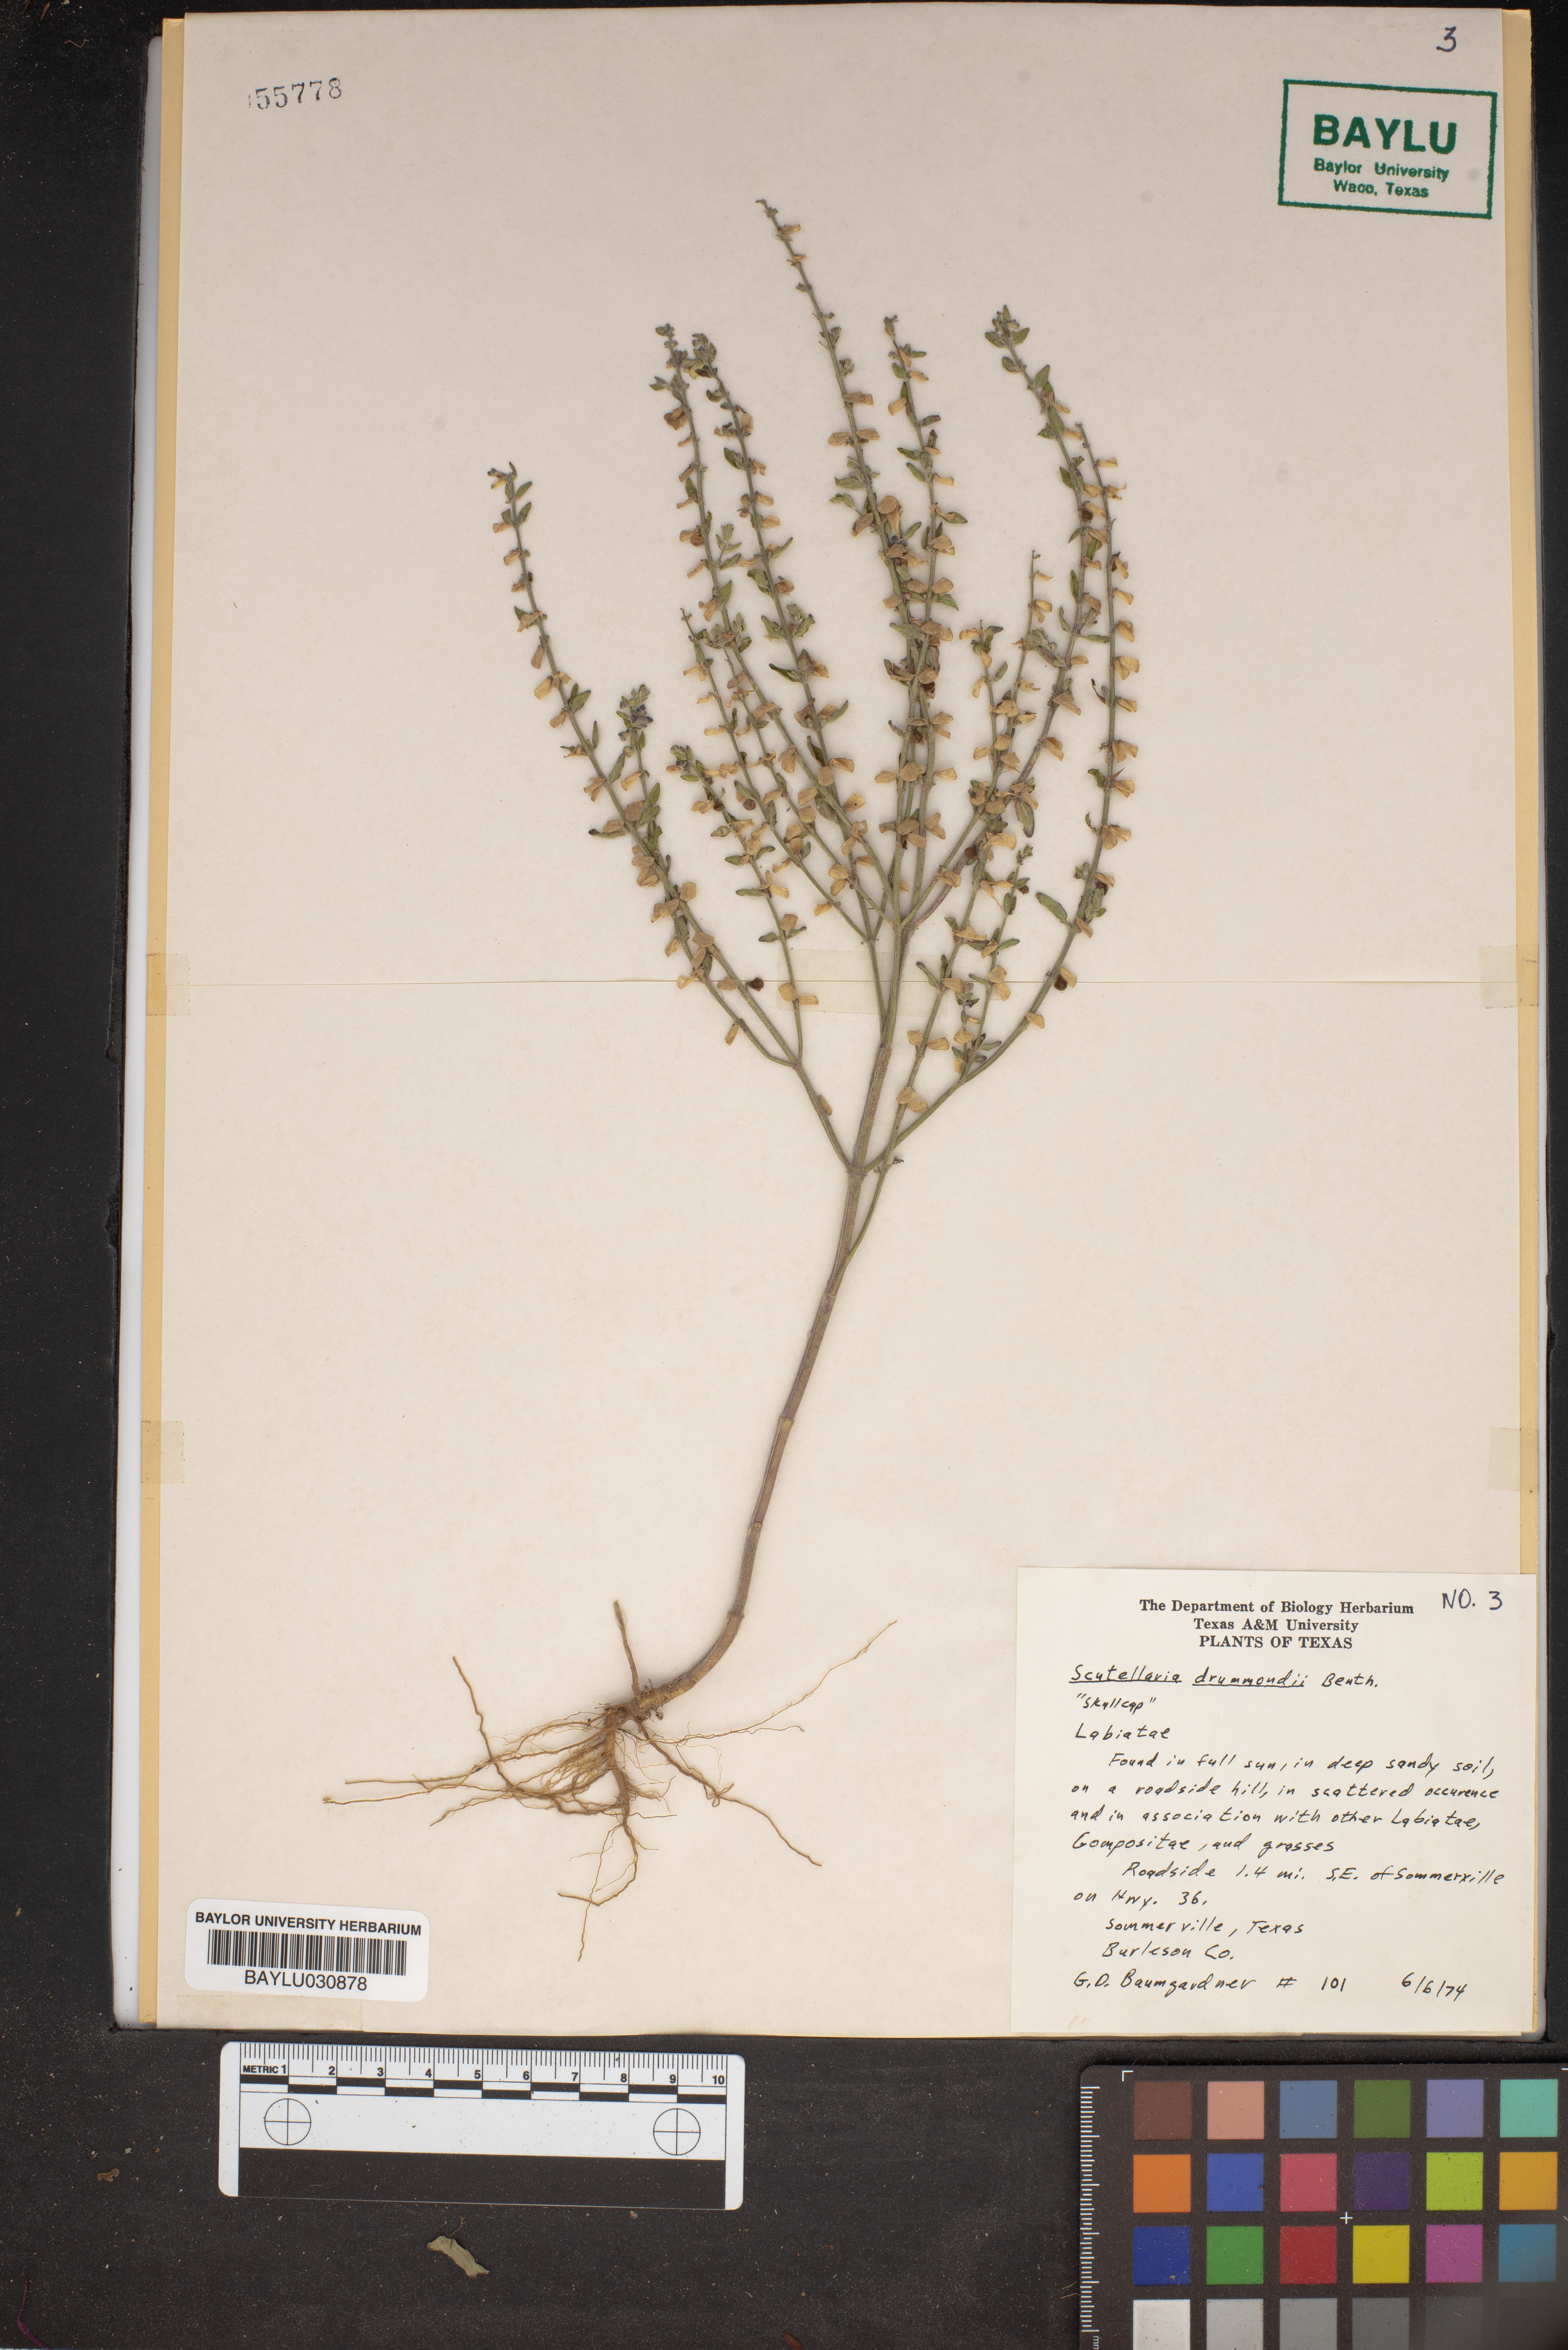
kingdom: Plantae
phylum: Tracheophyta
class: Magnoliopsida
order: Lamiales
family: Lamiaceae
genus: Scutellaria
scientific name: Scutellaria drummondii
